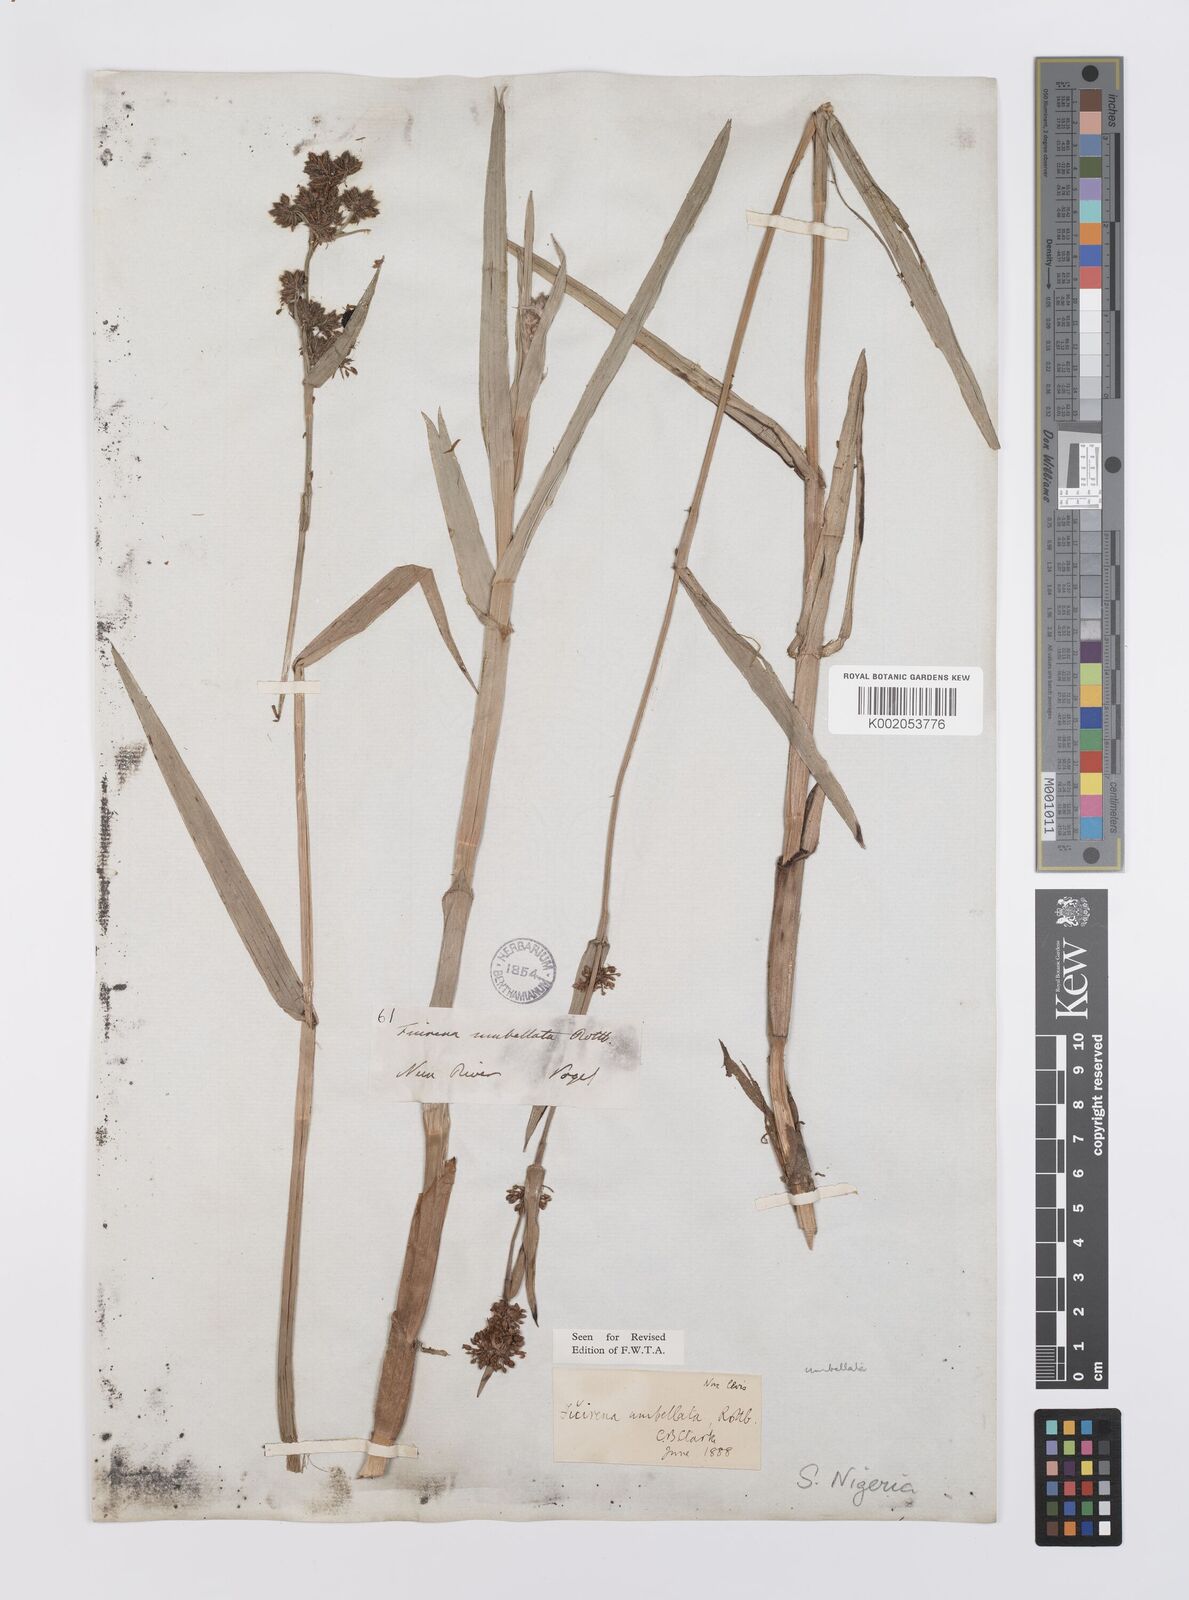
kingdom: Plantae
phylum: Tracheophyta
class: Liliopsida
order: Poales
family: Cyperaceae
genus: Fuirena
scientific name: Fuirena umbellata
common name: Yefen
